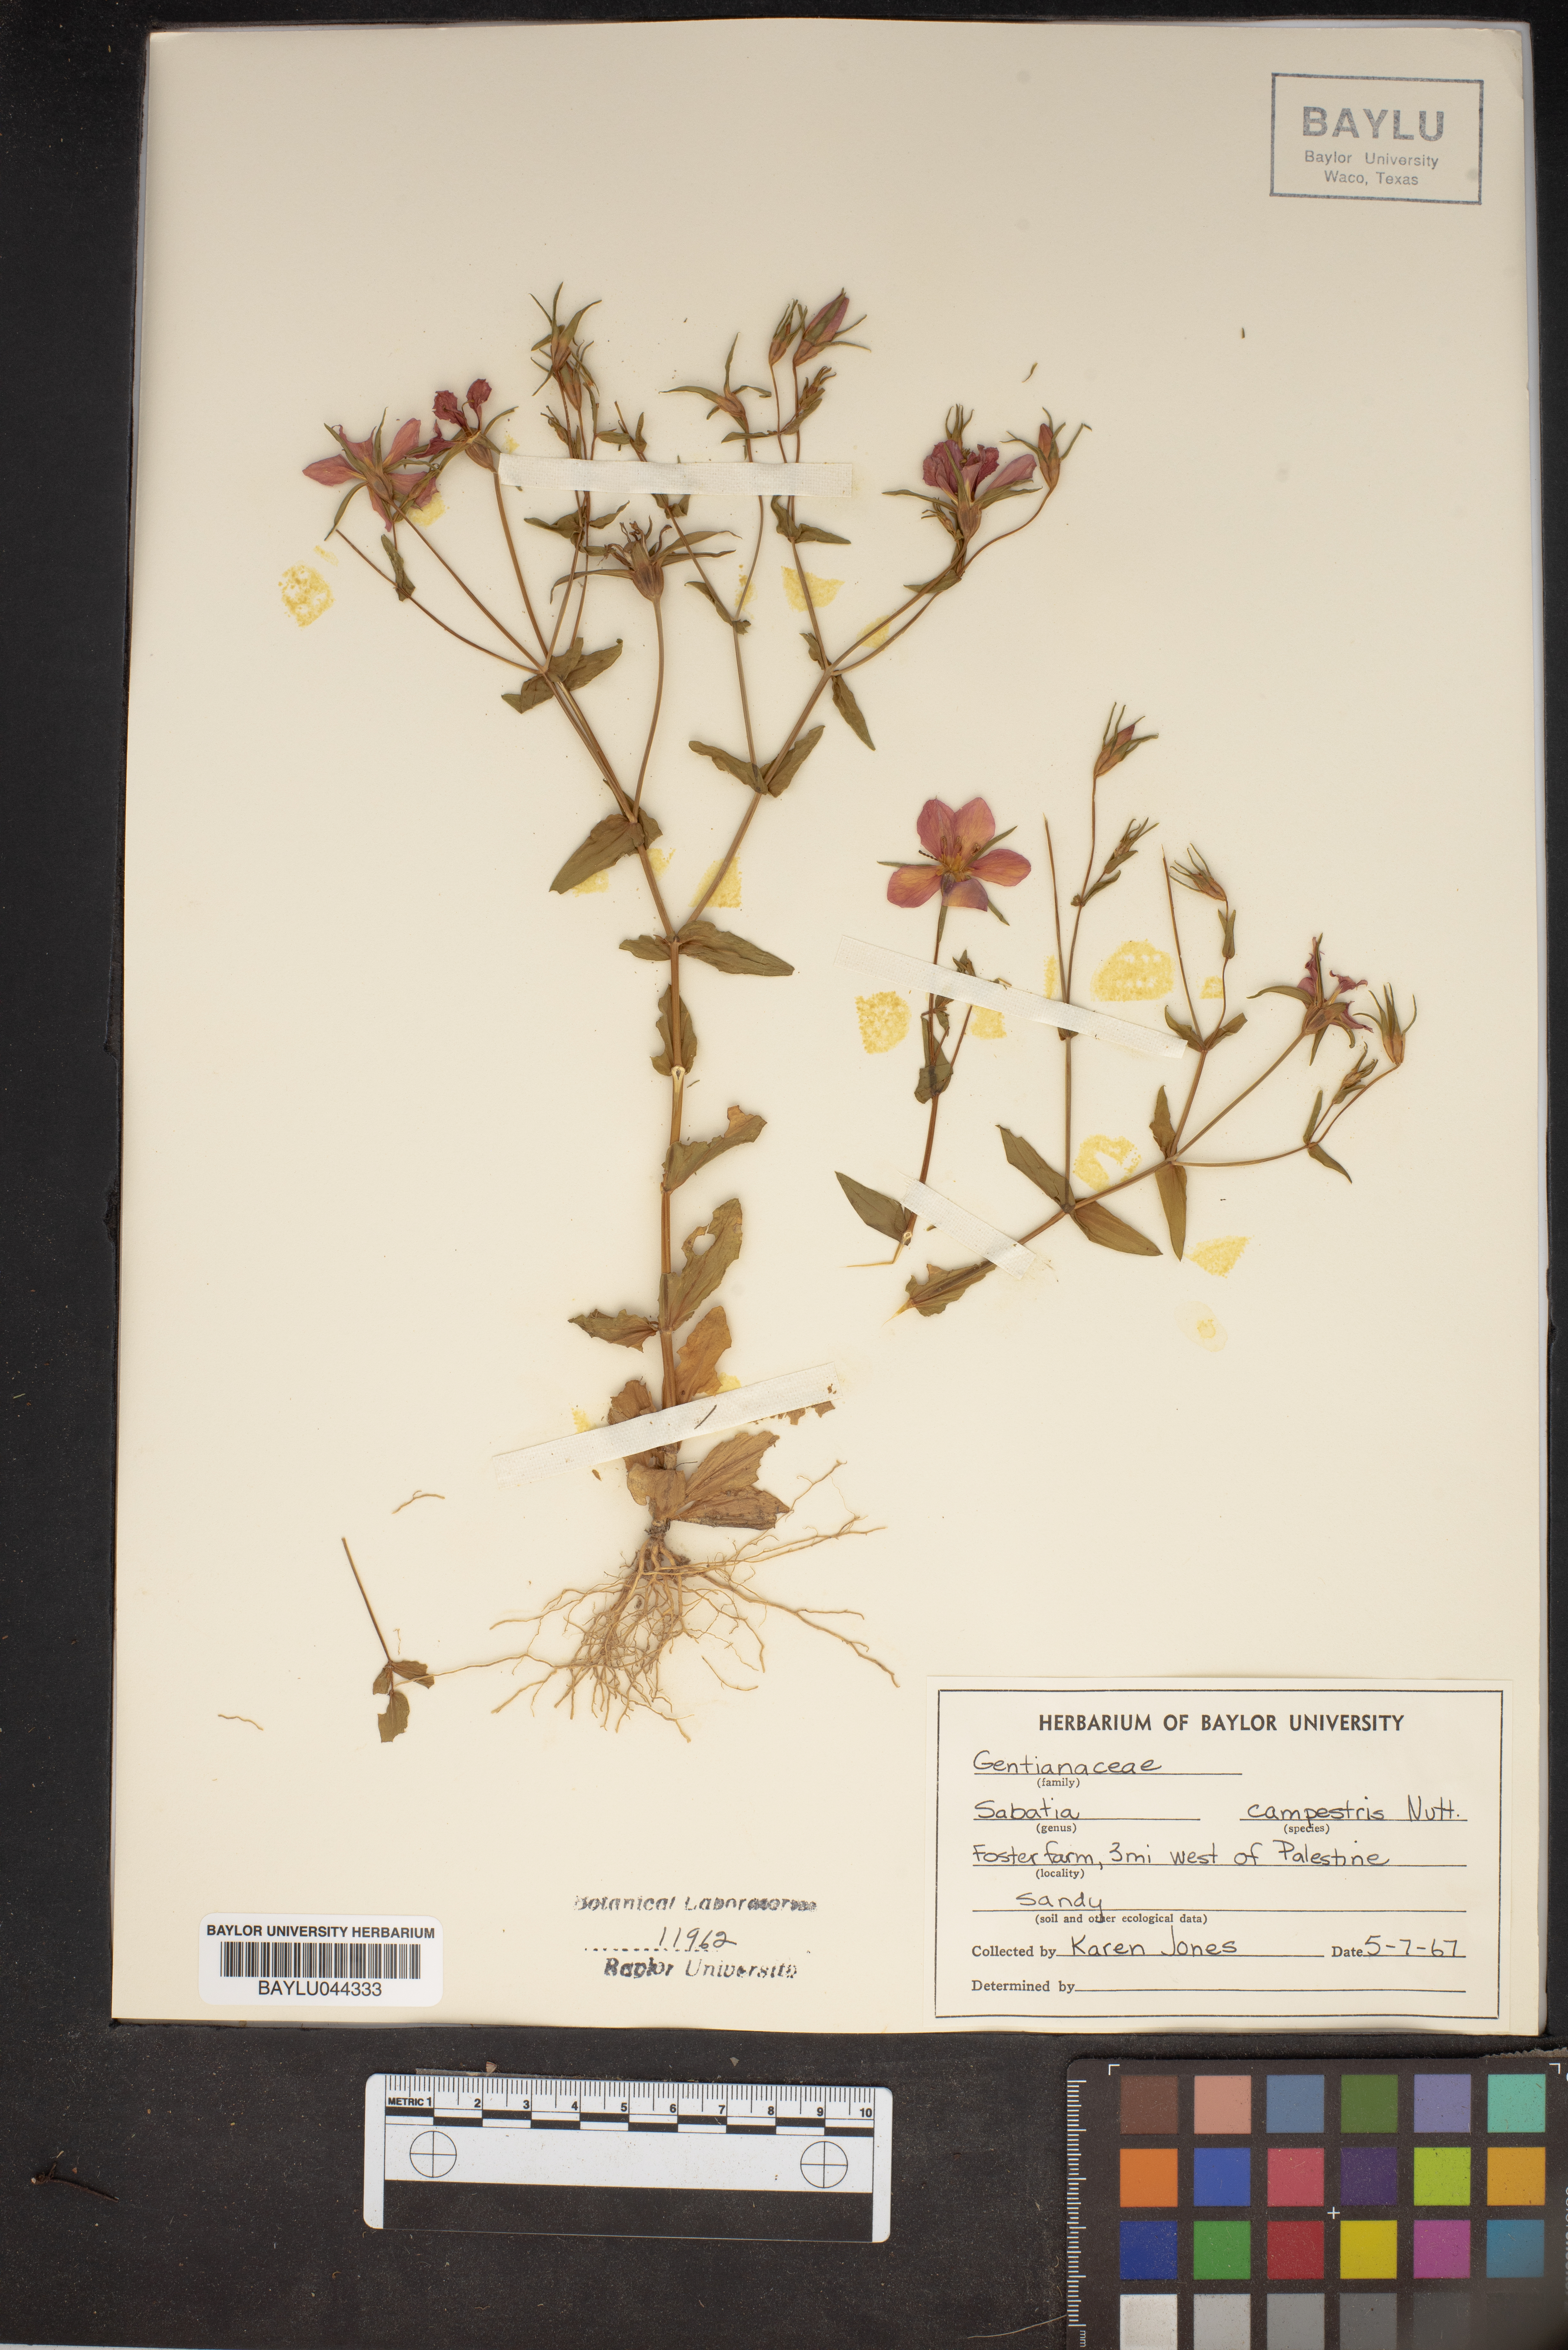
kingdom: Plantae
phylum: Tracheophyta
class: Magnoliopsida
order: Gentianales
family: Gentianaceae
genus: Sabatia
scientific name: Sabatia campestris
